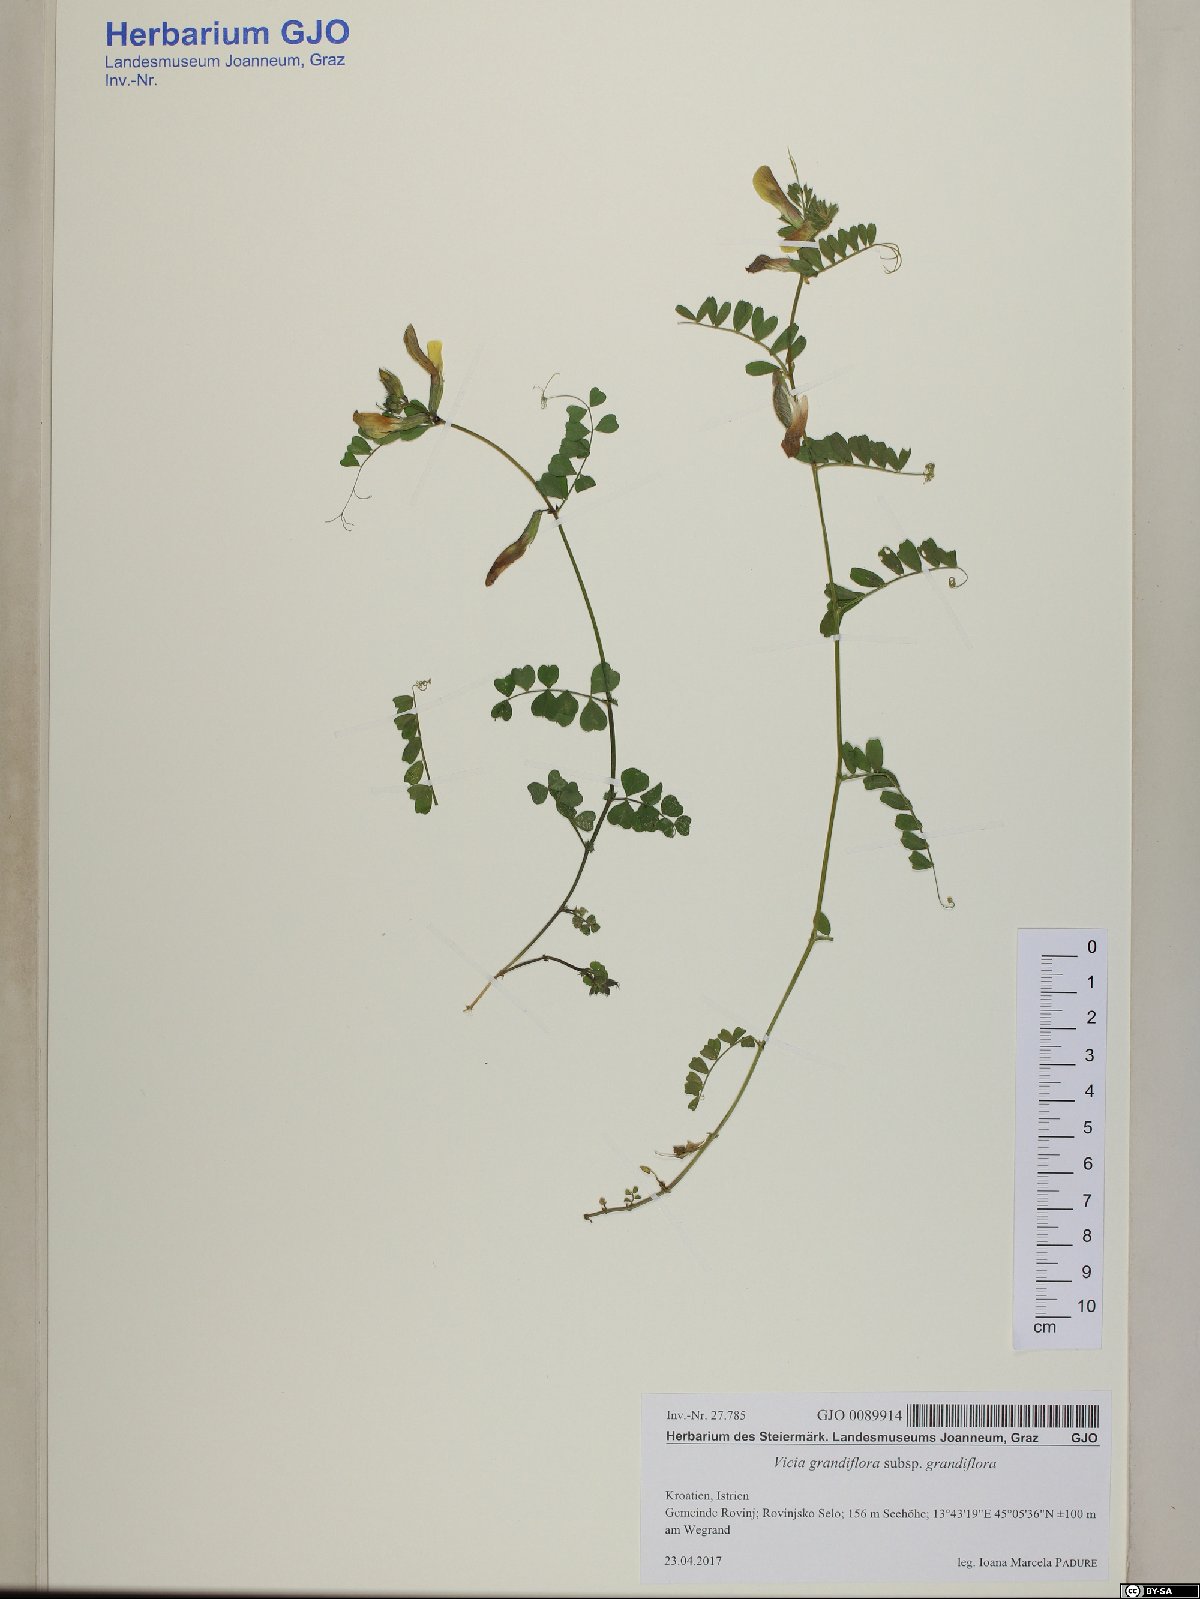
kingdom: Plantae
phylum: Tracheophyta
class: Magnoliopsida
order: Fabales
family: Fabaceae
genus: Vicia
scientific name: Vicia grandiflora
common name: Large yellow vetch
